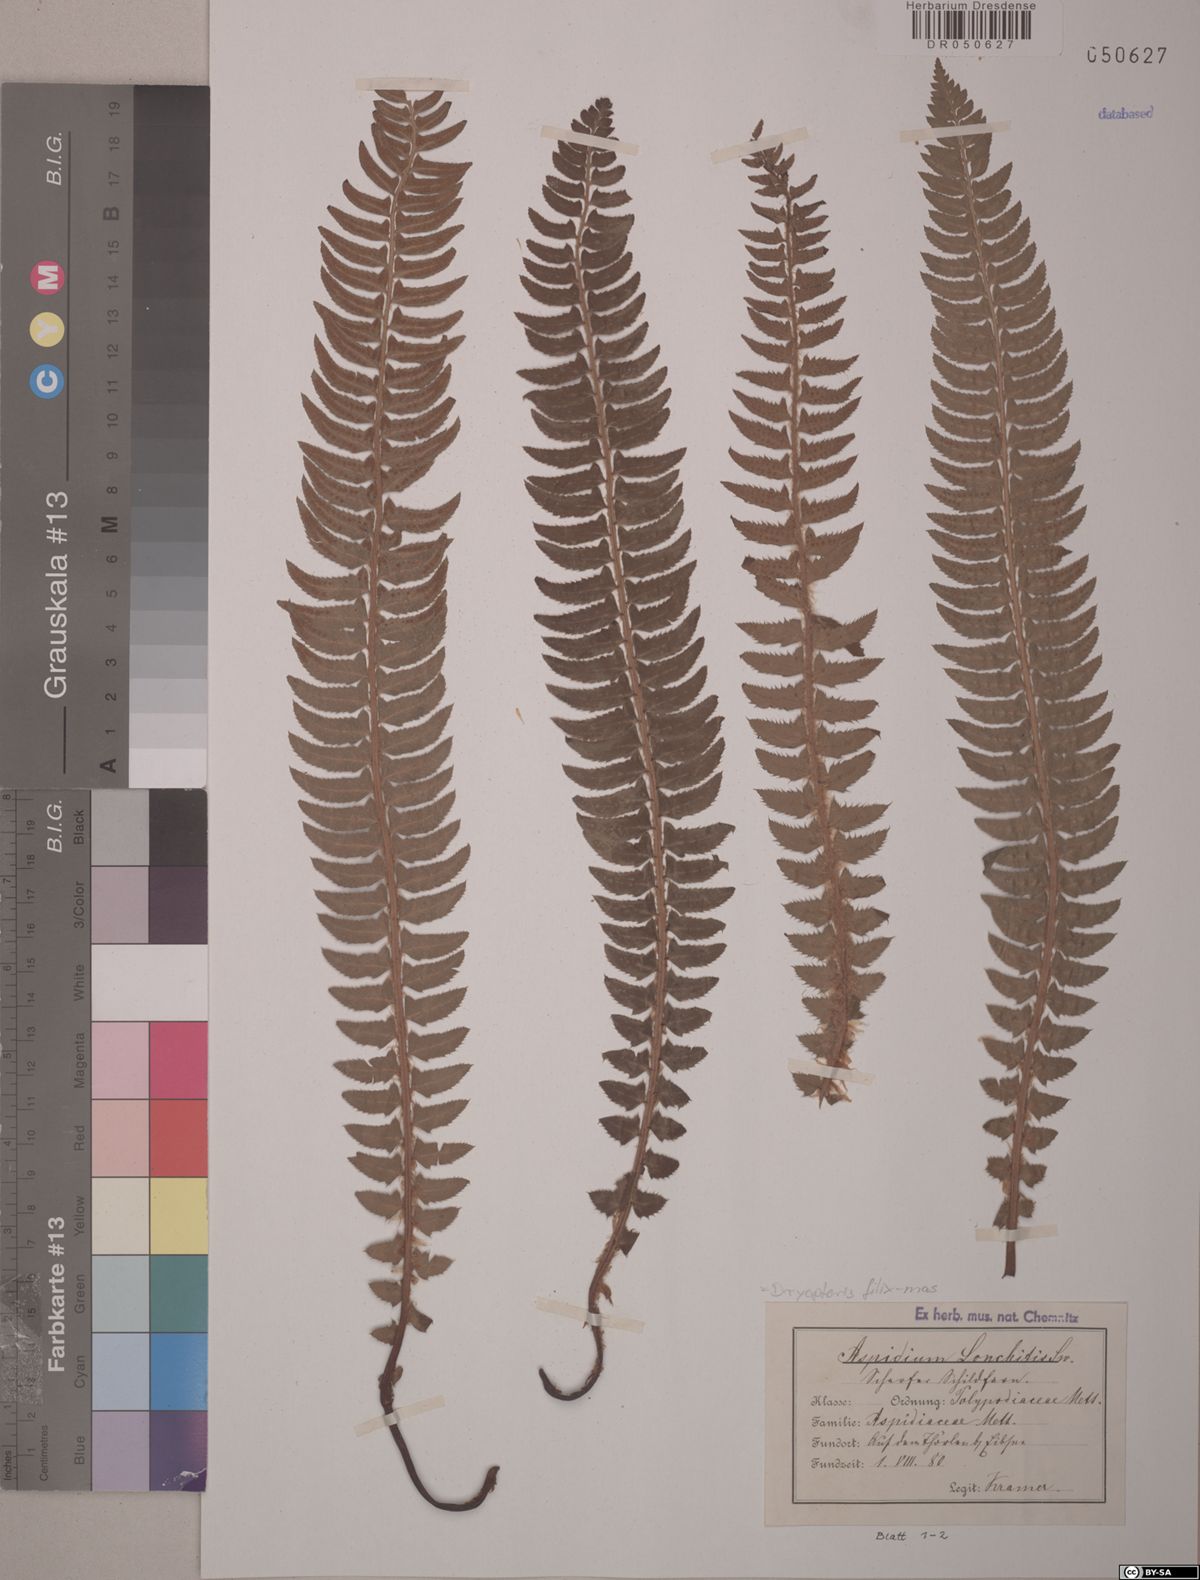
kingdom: Plantae
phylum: Tracheophyta
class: Polypodiopsida
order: Polypodiales
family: Dryopteridaceae
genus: Polystichum
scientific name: Polystichum lonchitis
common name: Holly fern
